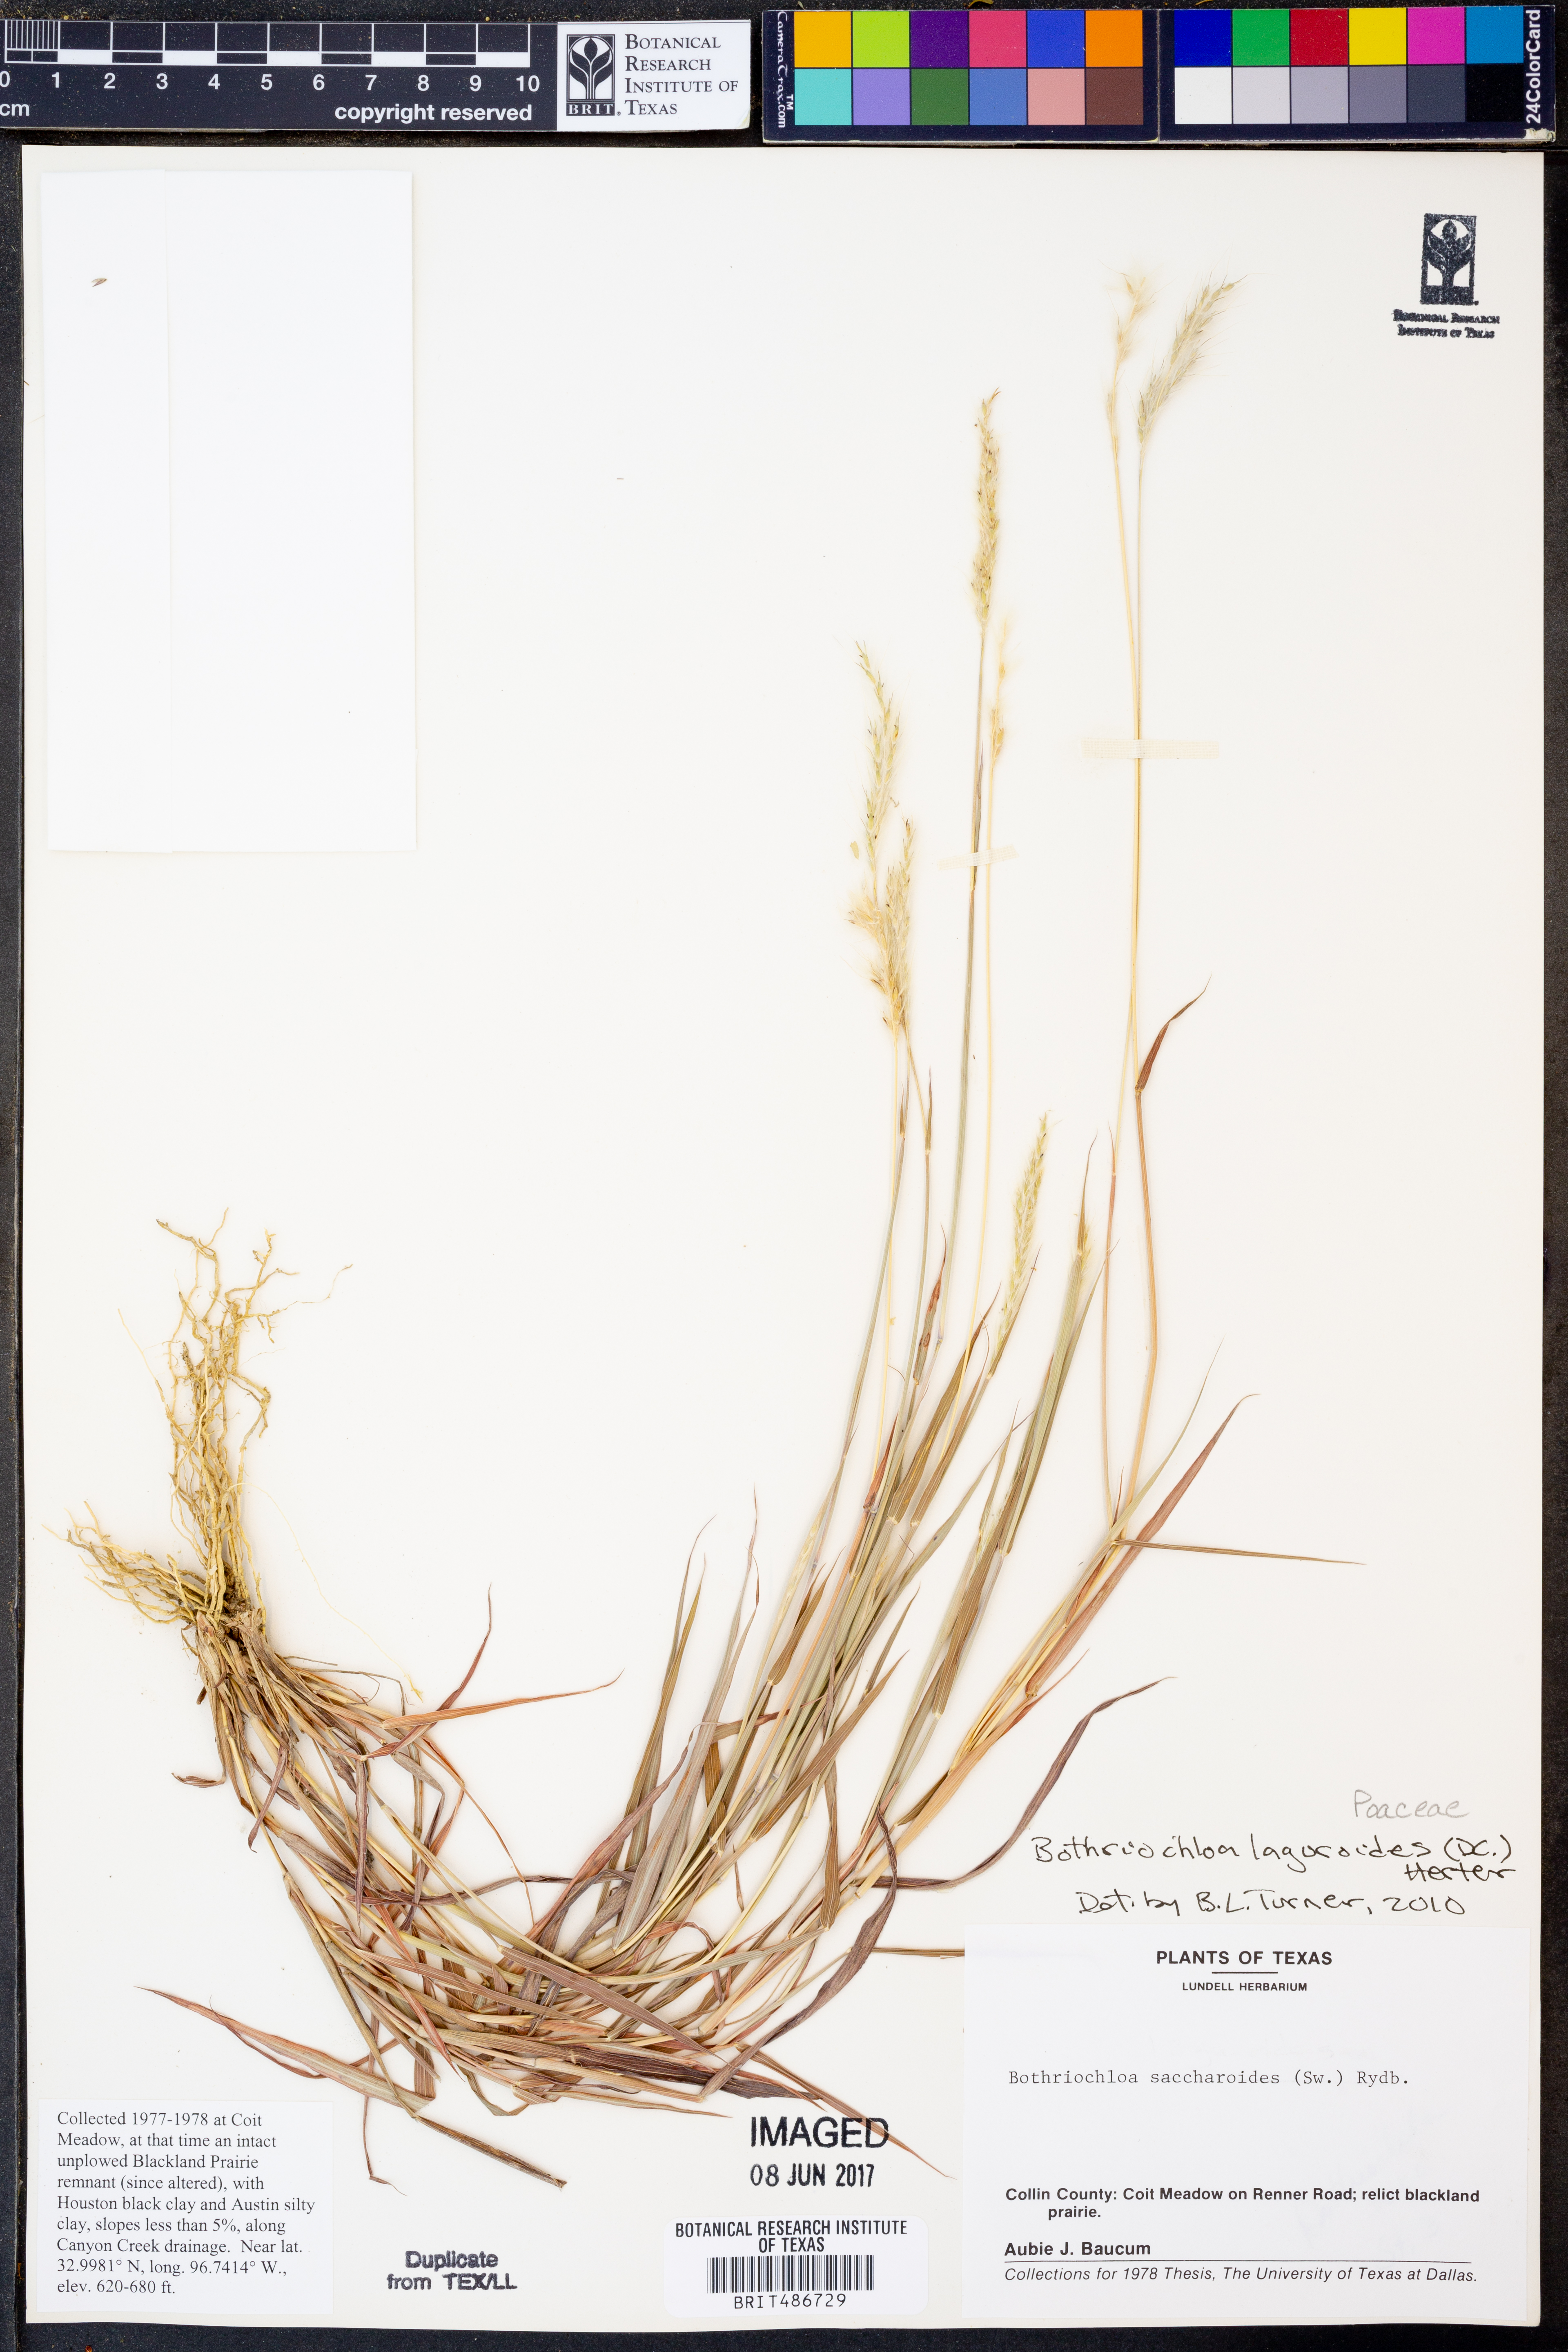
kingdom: Plantae
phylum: Tracheophyta
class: Liliopsida
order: Poales
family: Poaceae
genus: Bothriochloa
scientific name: Bothriochloa laguroides
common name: Silver bluestem
